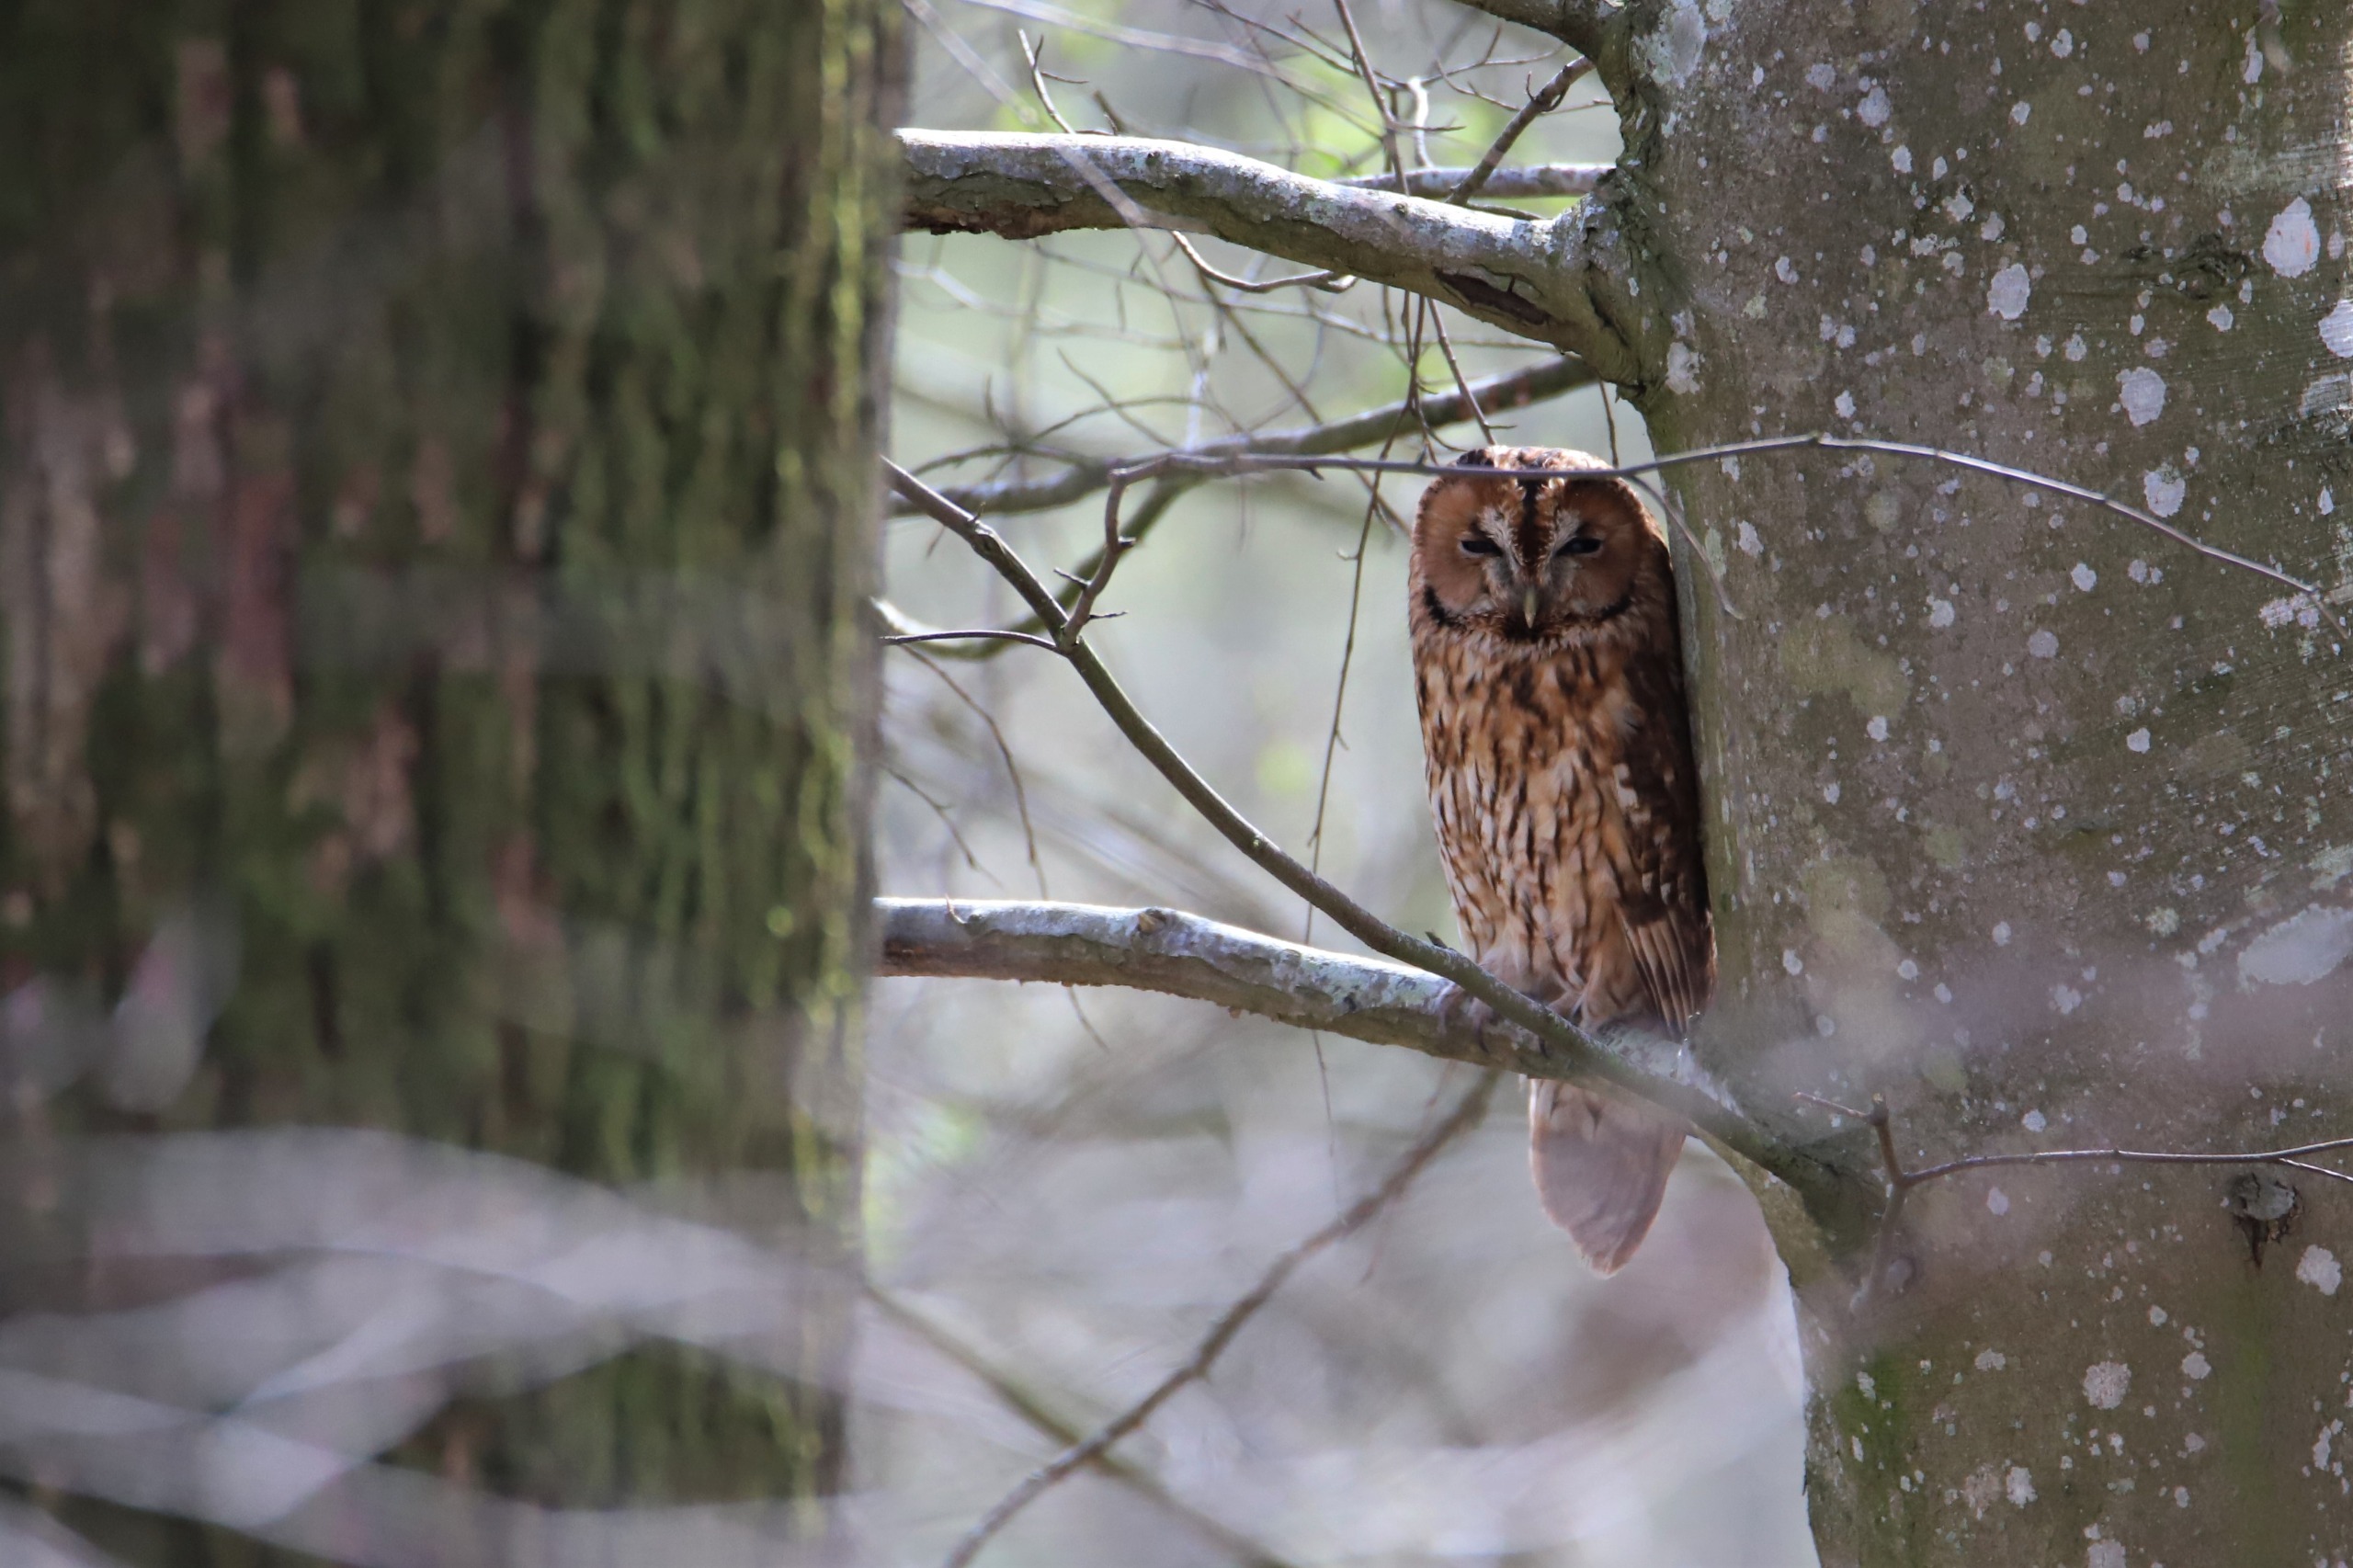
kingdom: Animalia
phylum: Chordata
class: Aves
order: Strigiformes
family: Strigidae
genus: Strix
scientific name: Strix aluco
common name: Natugle
